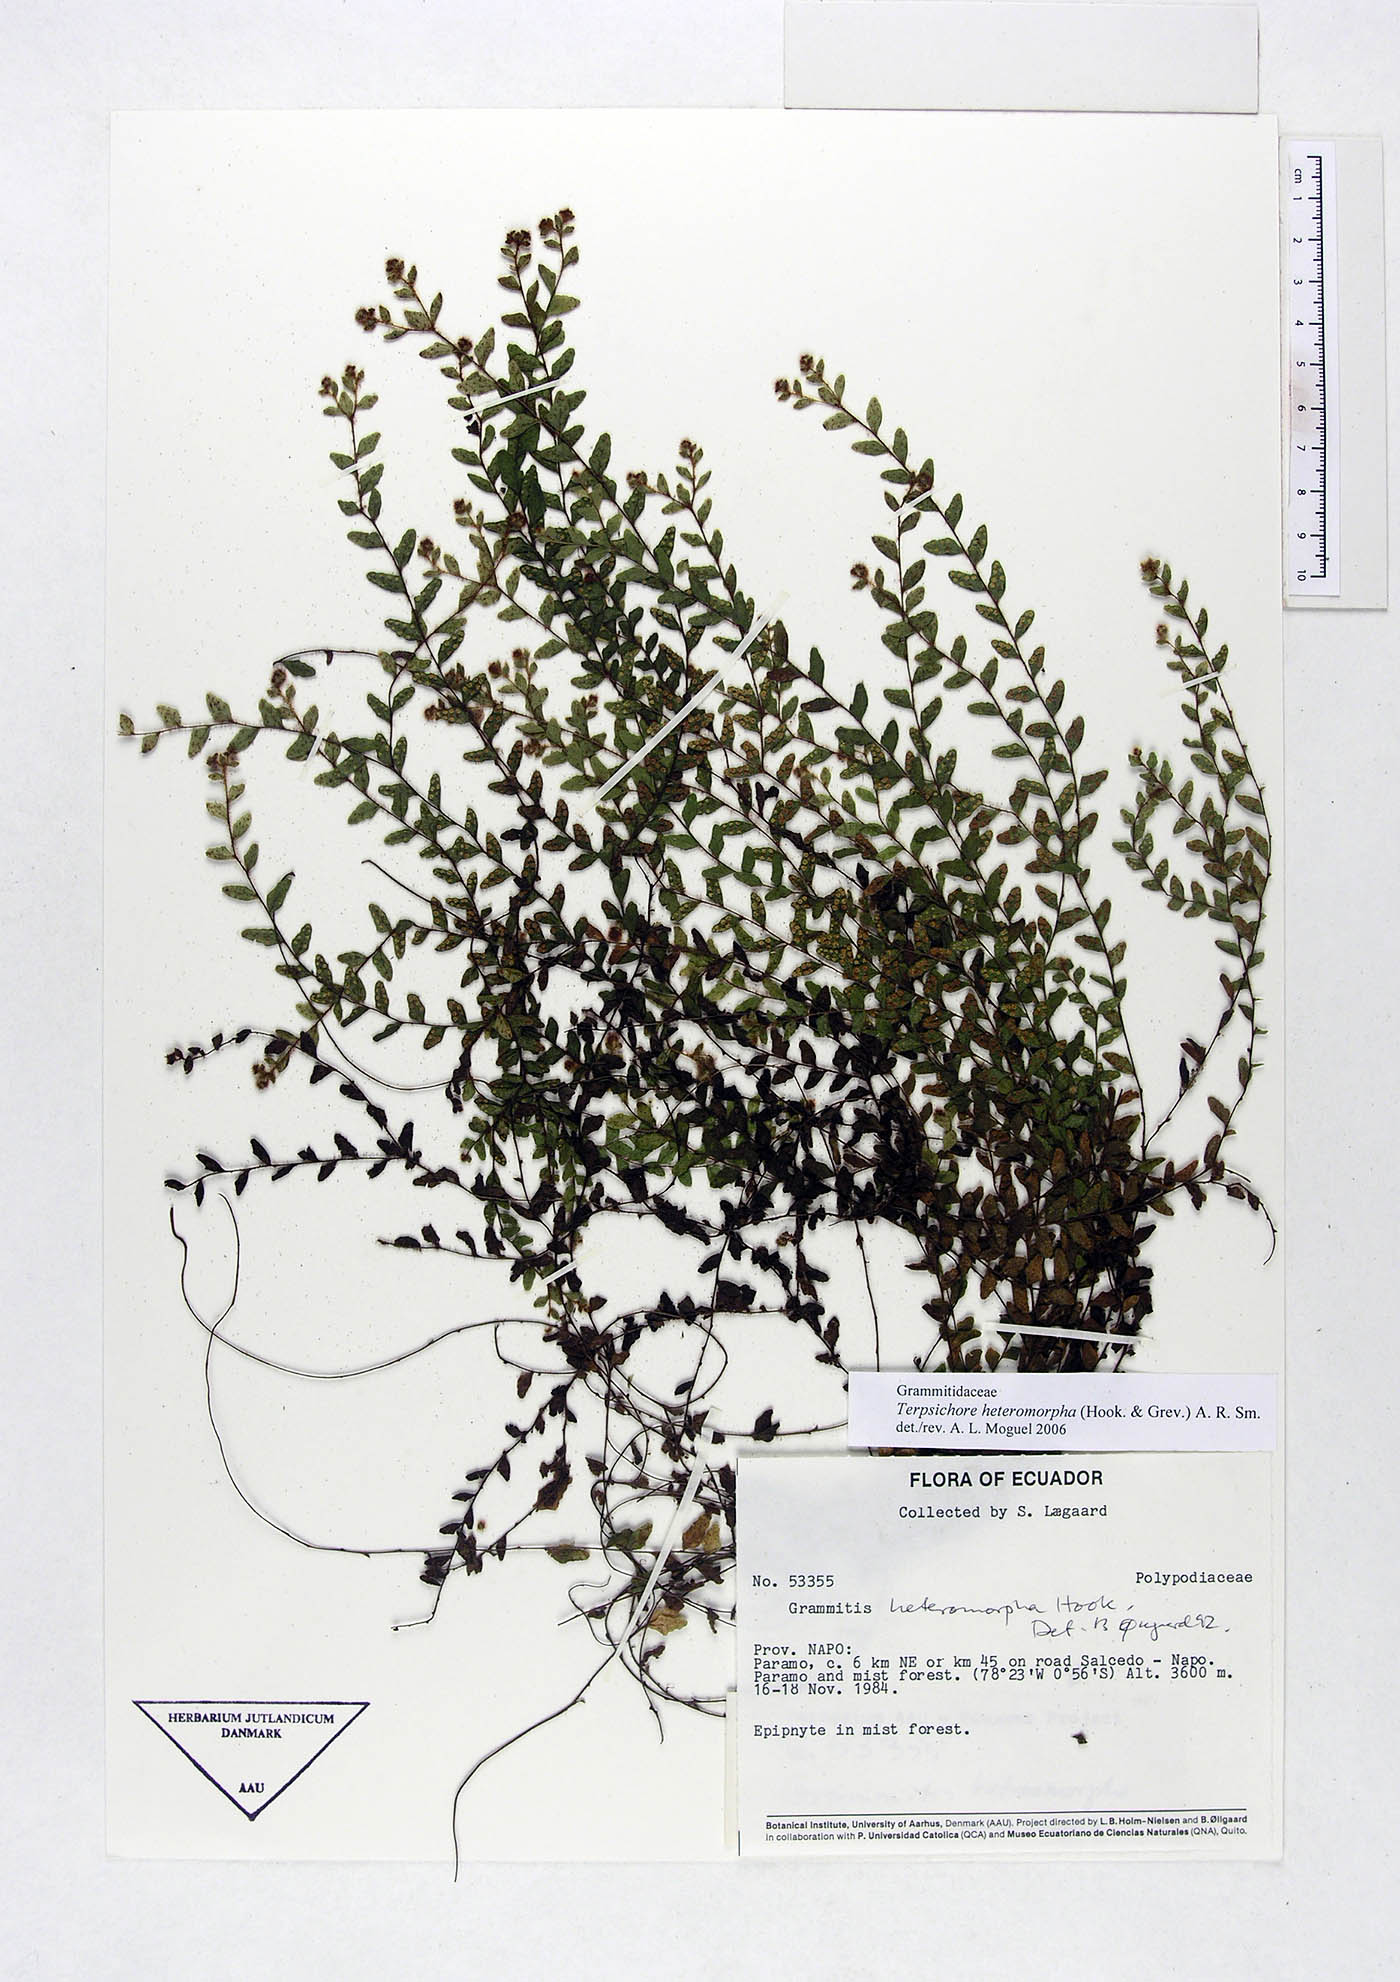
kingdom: Plantae
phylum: Tracheophyta
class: Polypodiopsida
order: Polypodiales
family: Polypodiaceae
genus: Alansmia
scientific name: Alansmia heteromorpha
